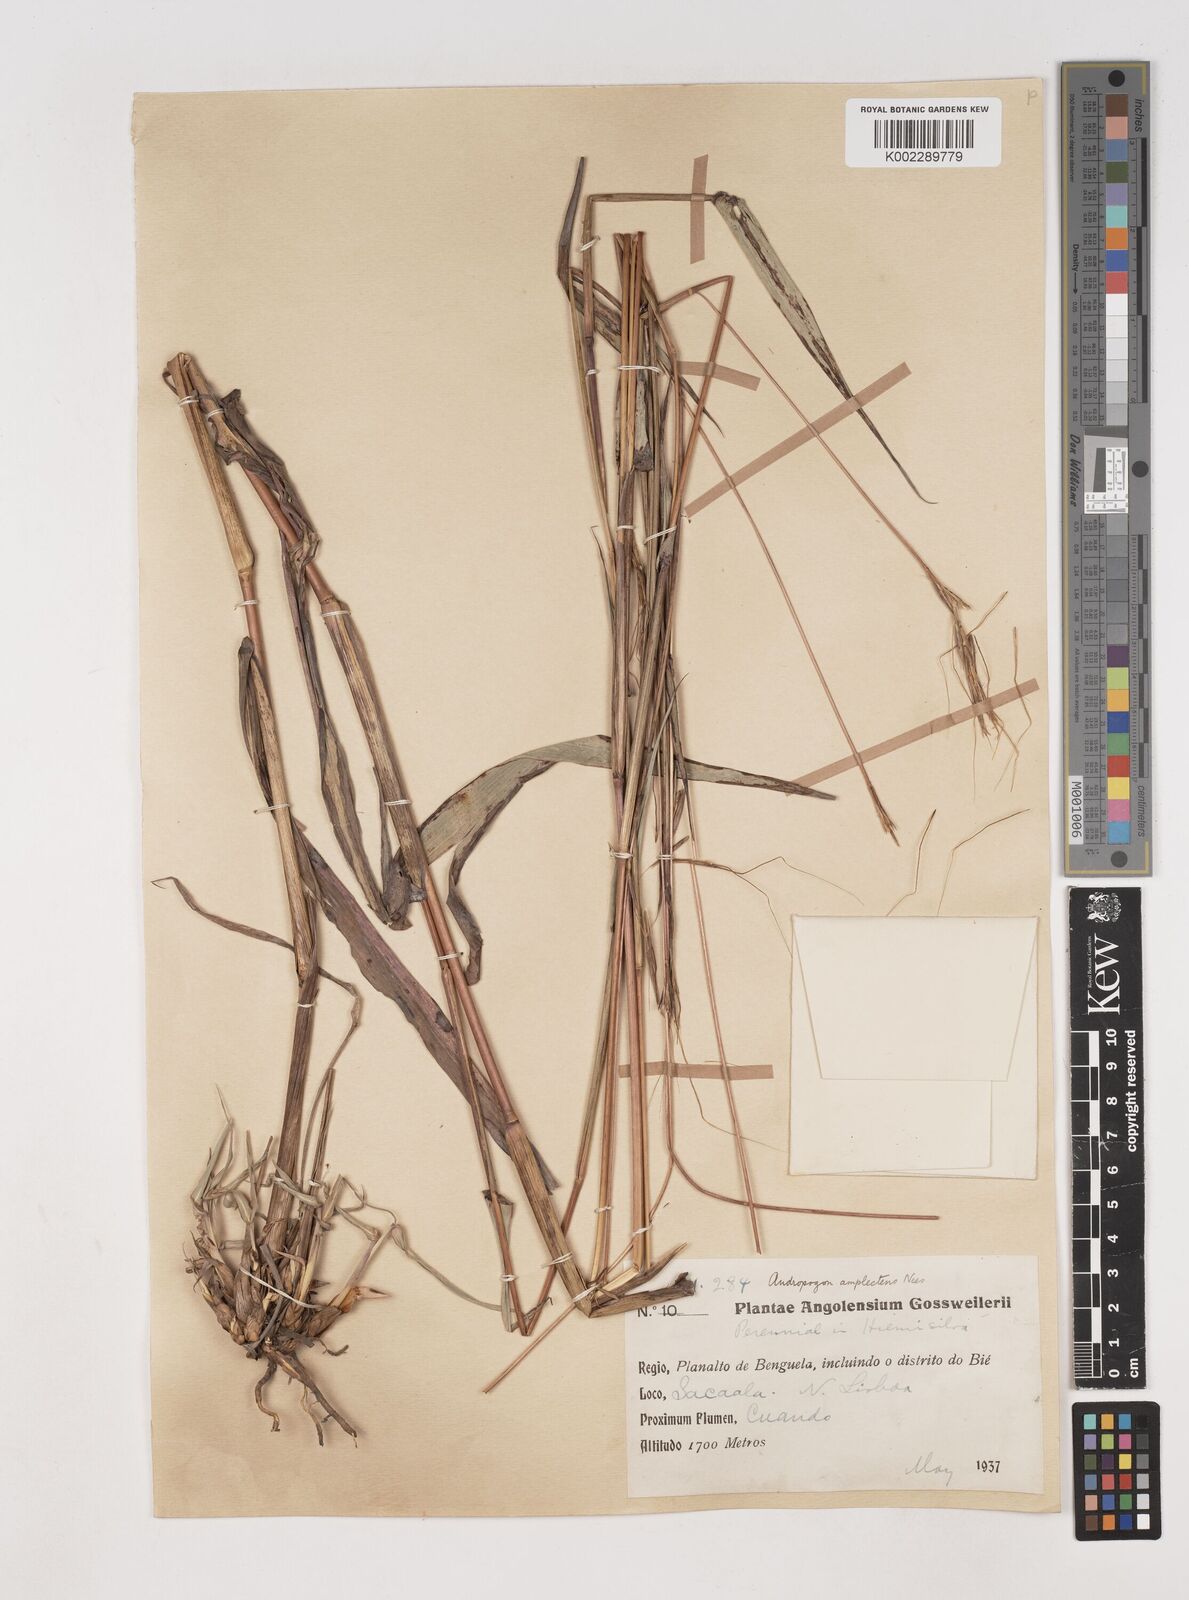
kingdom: Plantae
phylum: Tracheophyta
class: Liliopsida
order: Poales
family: Poaceae
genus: Diheteropogon
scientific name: Diheteropogon amplectens
